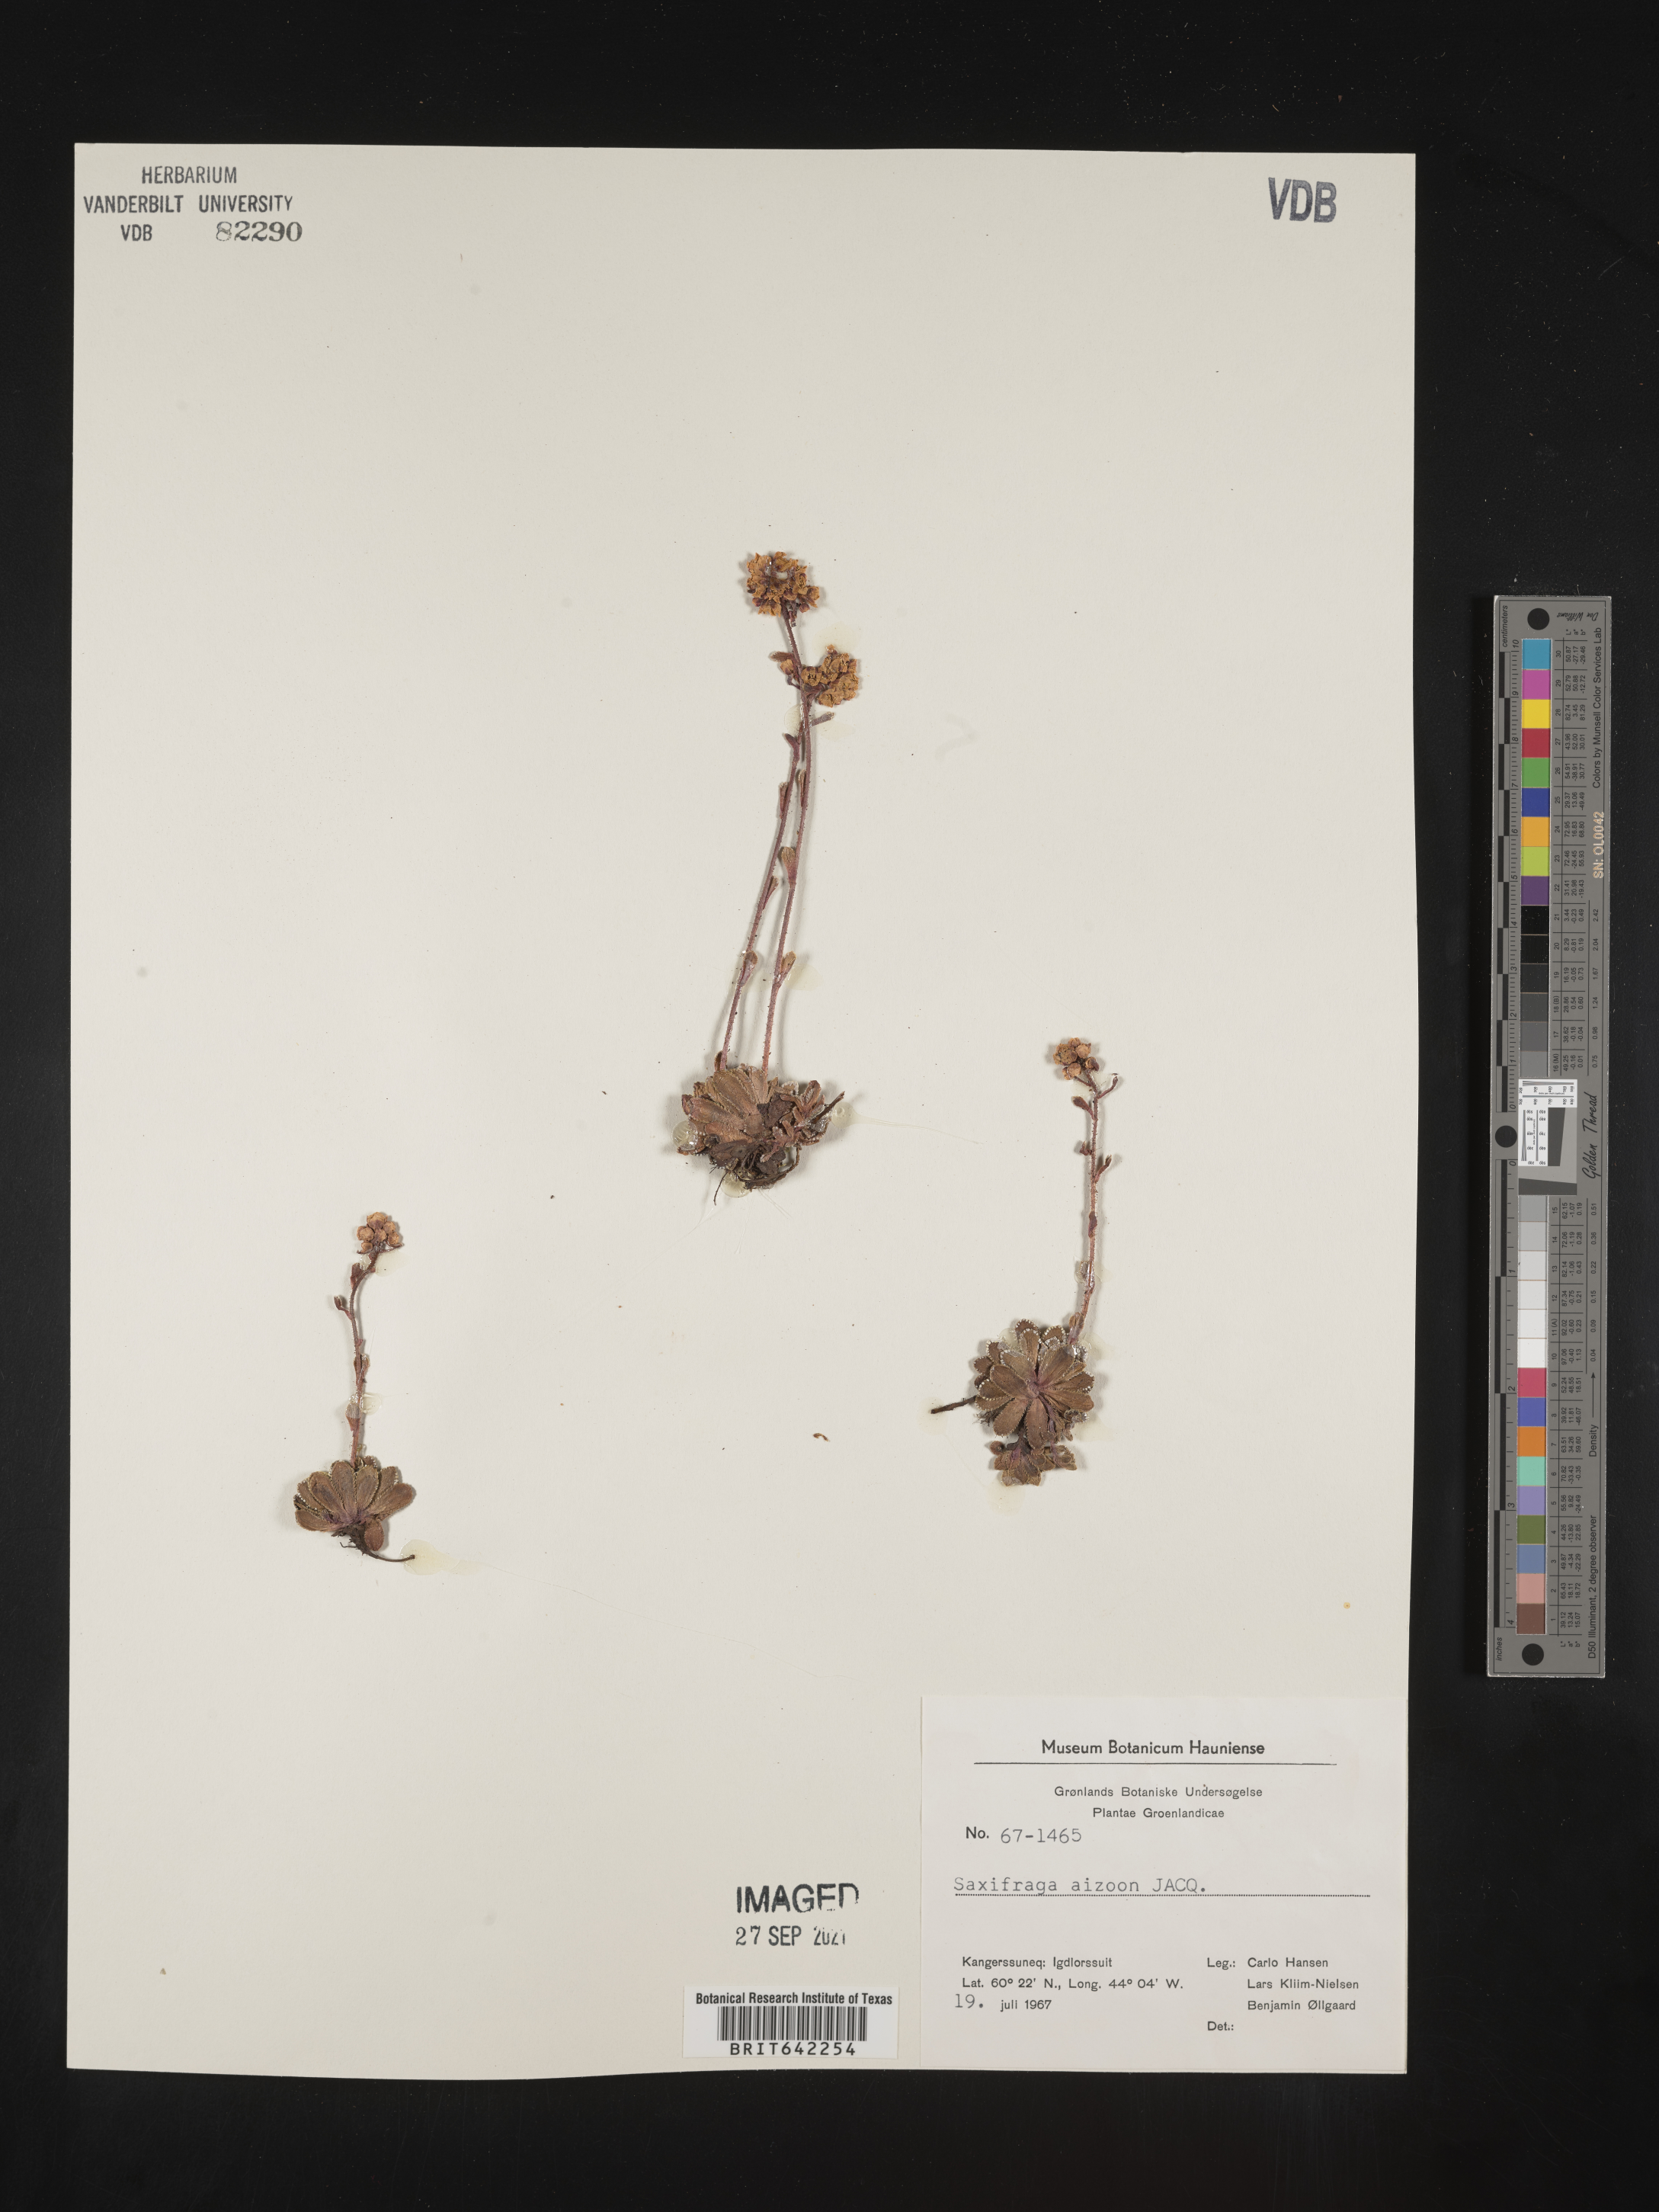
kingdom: Plantae
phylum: Tracheophyta
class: Magnoliopsida
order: Saxifragales
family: Saxifragaceae
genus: Saxifraga
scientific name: Saxifraga
